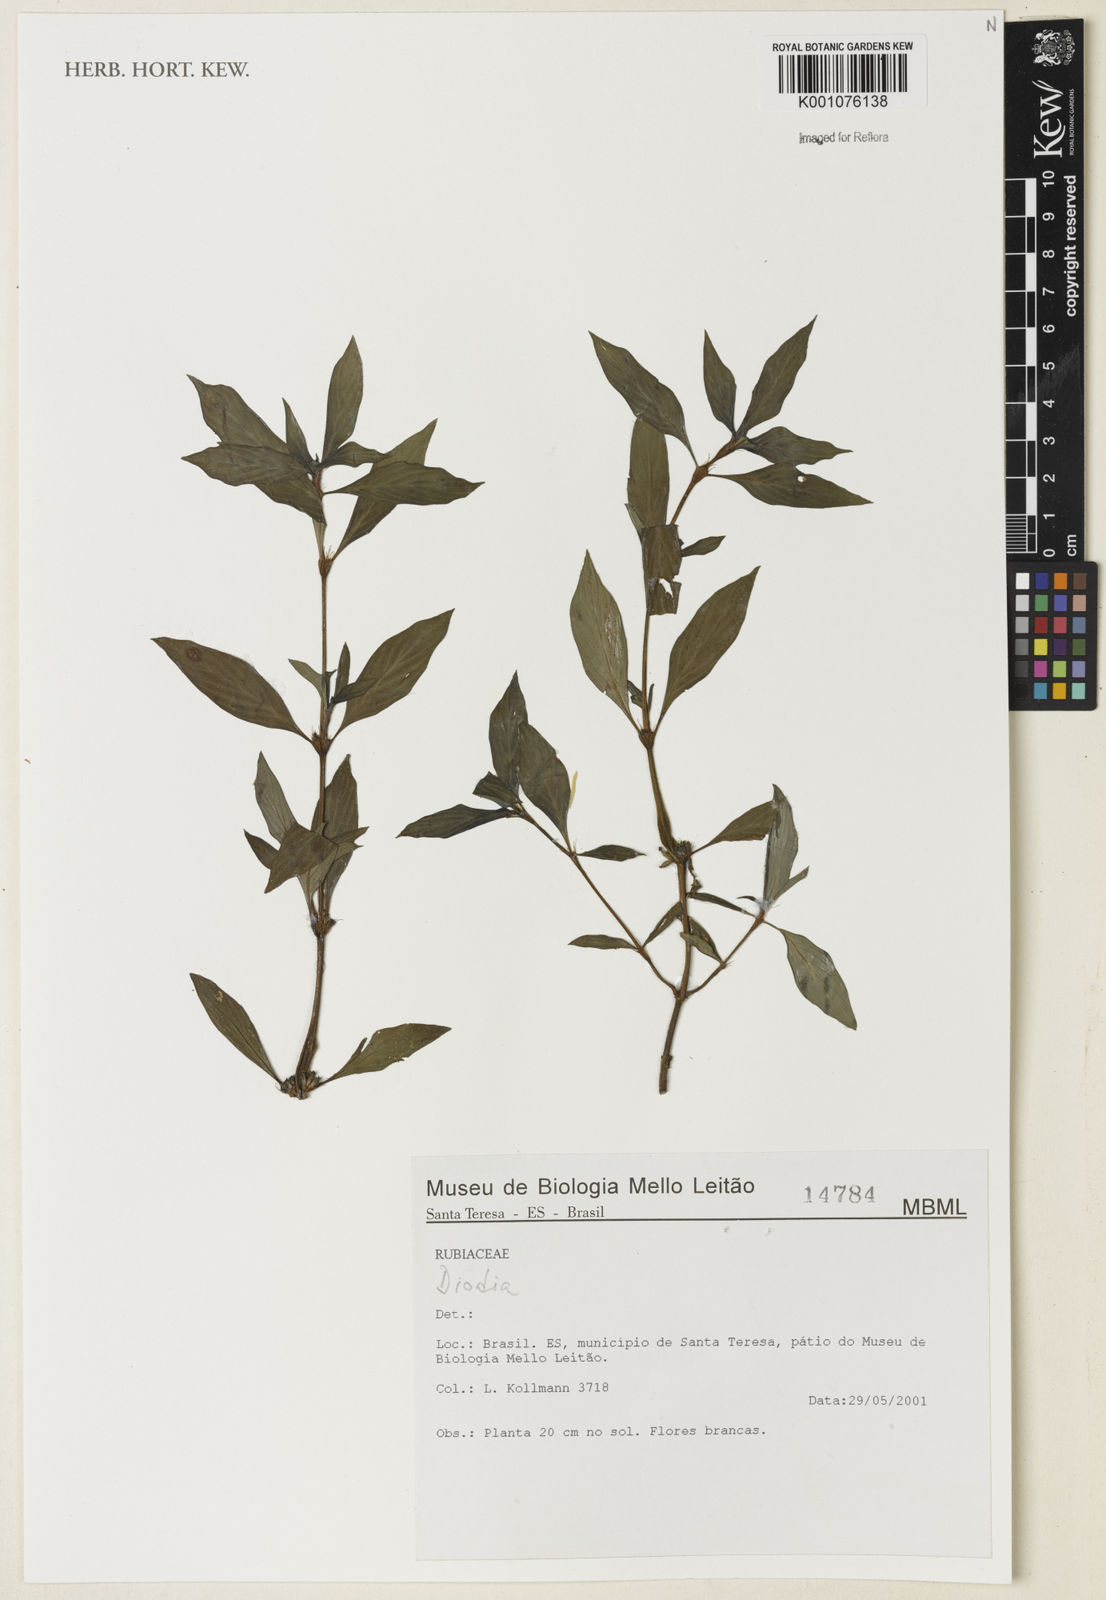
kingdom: Plantae
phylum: Tracheophyta
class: Magnoliopsida
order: Gentianales
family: Rubiaceae
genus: Hexasepalum
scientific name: Hexasepalum
